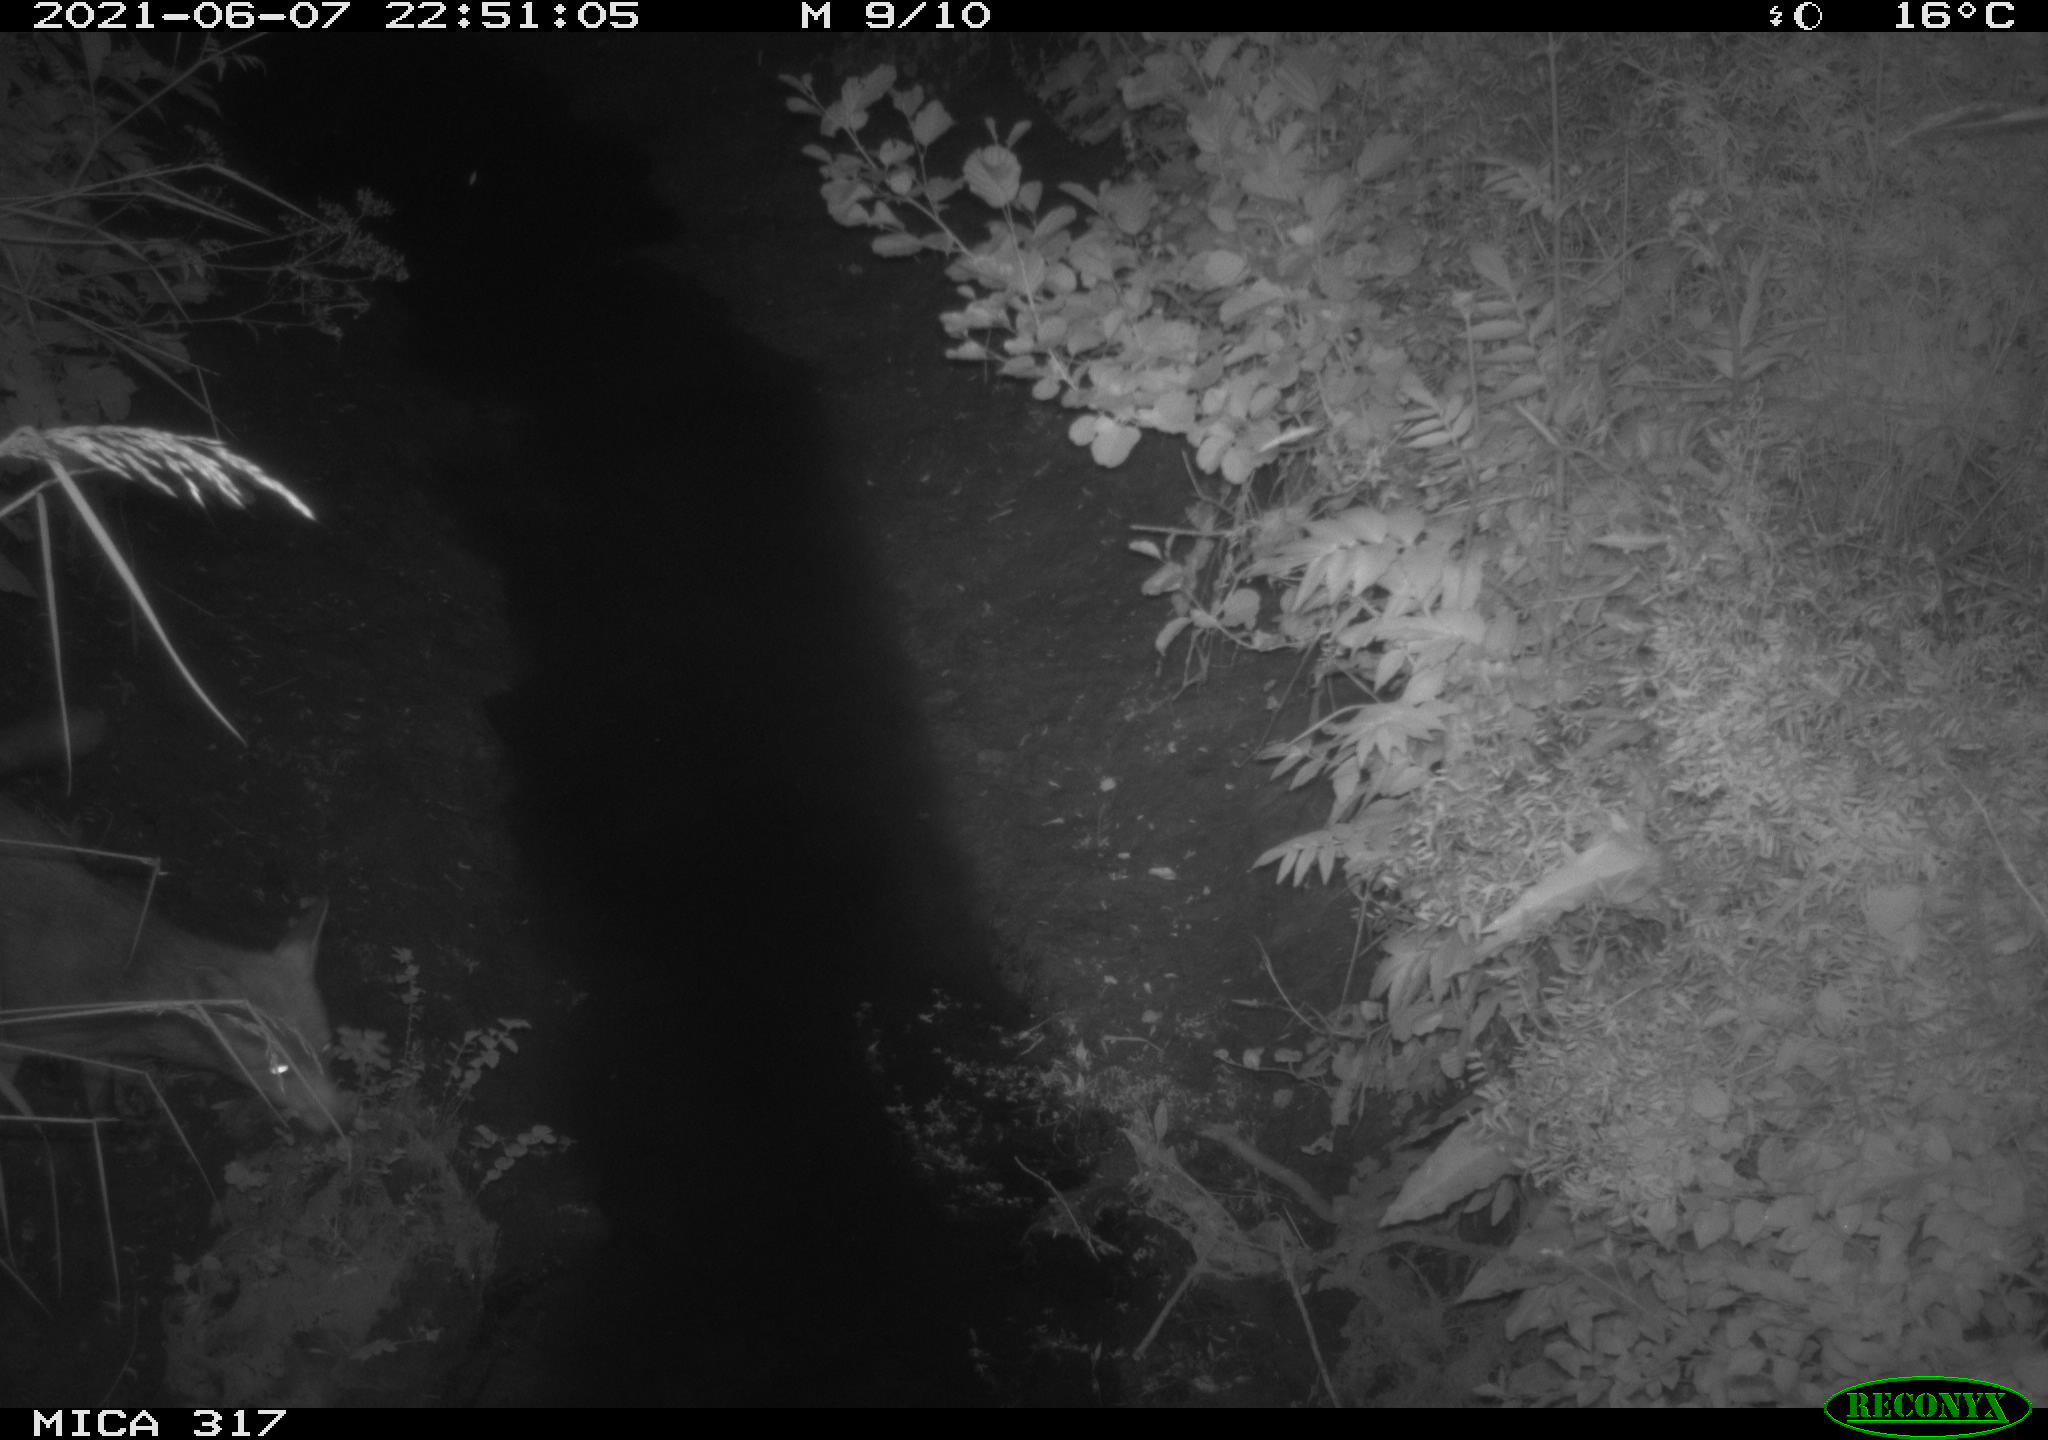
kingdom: Animalia
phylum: Chordata
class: Mammalia
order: Carnivora
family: Canidae
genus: Vulpes
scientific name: Vulpes vulpes
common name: Red fox
